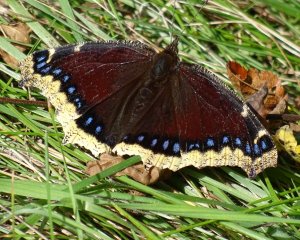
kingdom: Animalia
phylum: Arthropoda
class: Insecta
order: Lepidoptera
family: Nymphalidae
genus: Nymphalis
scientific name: Nymphalis antiopa
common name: Mourning Cloak
